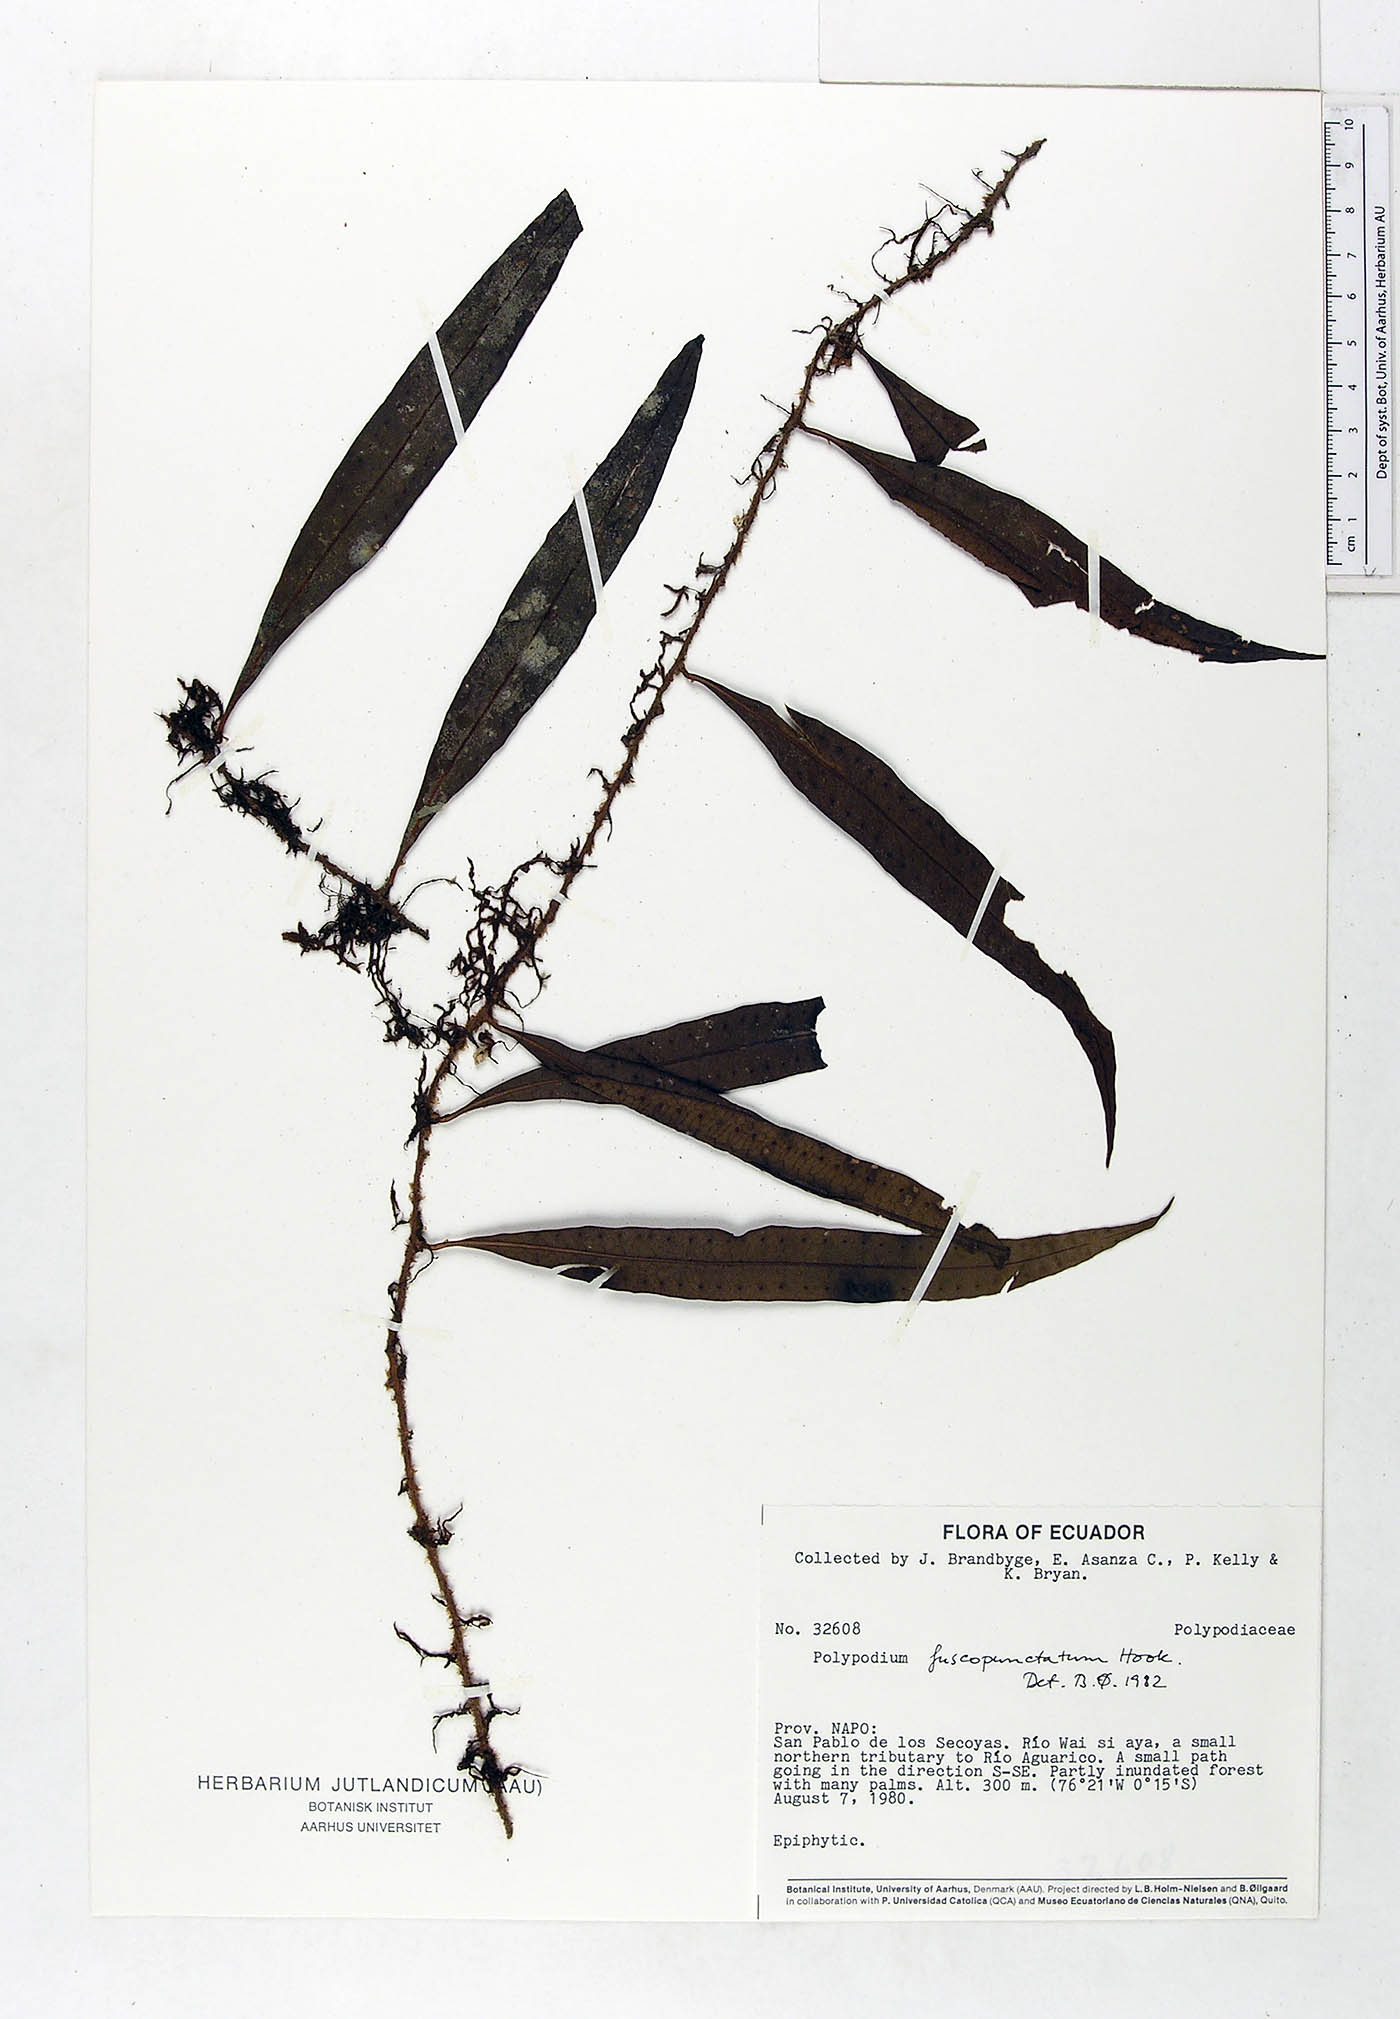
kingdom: Plantae
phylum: Tracheophyta
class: Polypodiopsida
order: Polypodiales
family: Polypodiaceae
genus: Microgramma
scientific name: Microgramma dictyophylla
